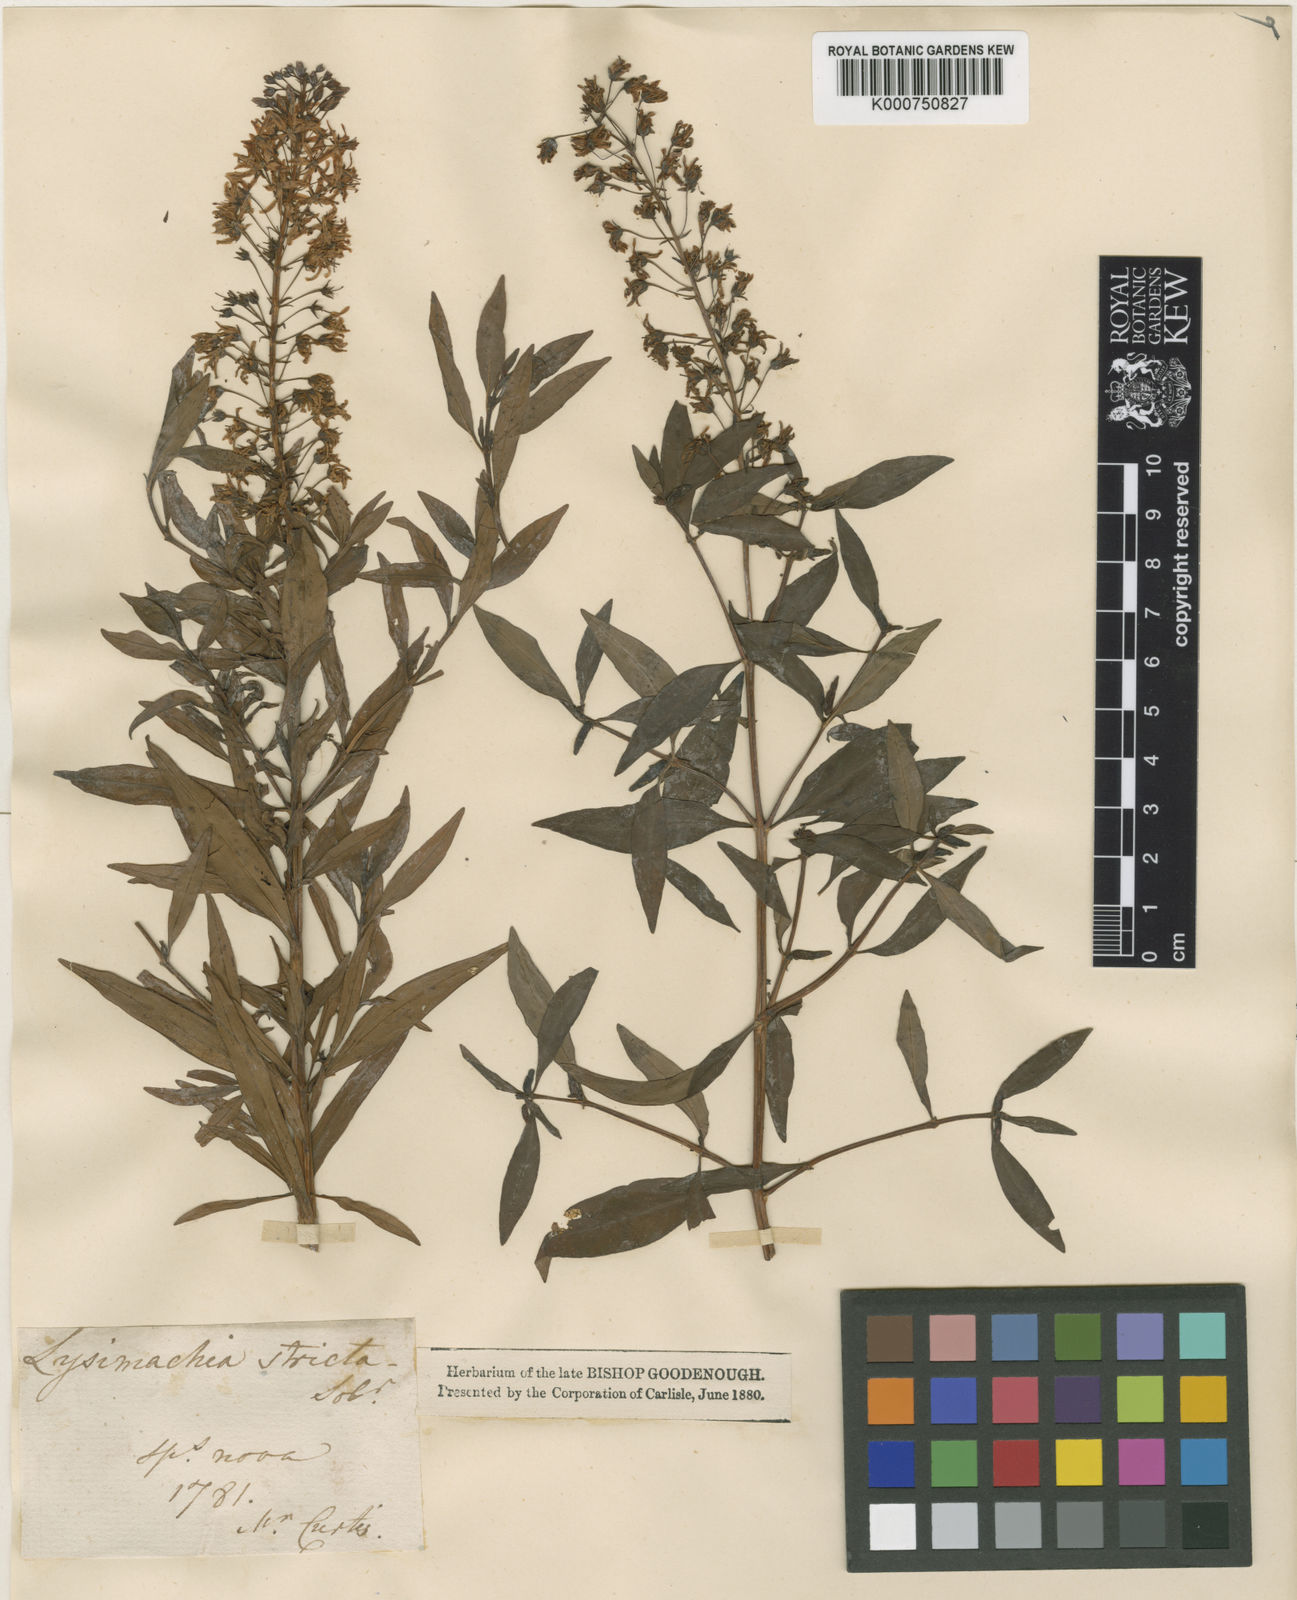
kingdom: Plantae
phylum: Tracheophyta
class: Magnoliopsida
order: Ericales
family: Primulaceae
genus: Lysimachia
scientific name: Lysimachia
